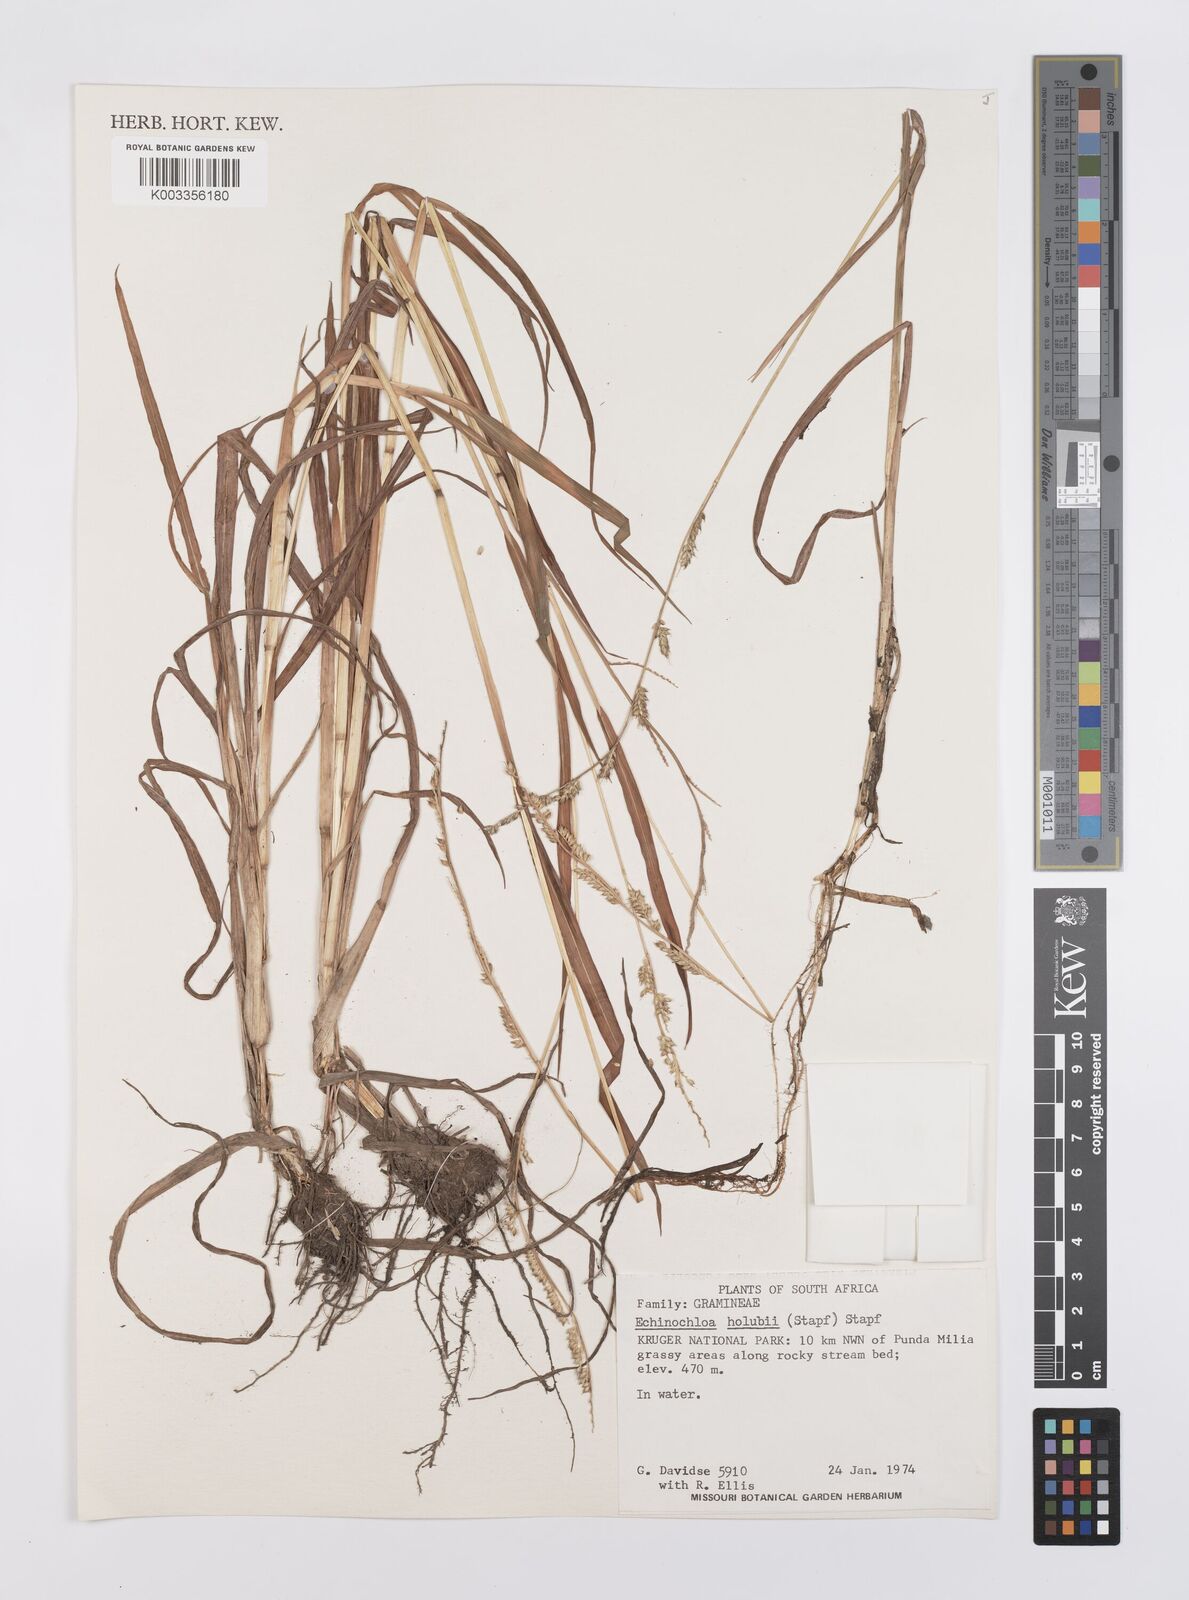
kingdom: Plantae
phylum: Tracheophyta
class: Liliopsida
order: Poales
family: Poaceae
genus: Echinochloa
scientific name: Echinochloa ugandensis
